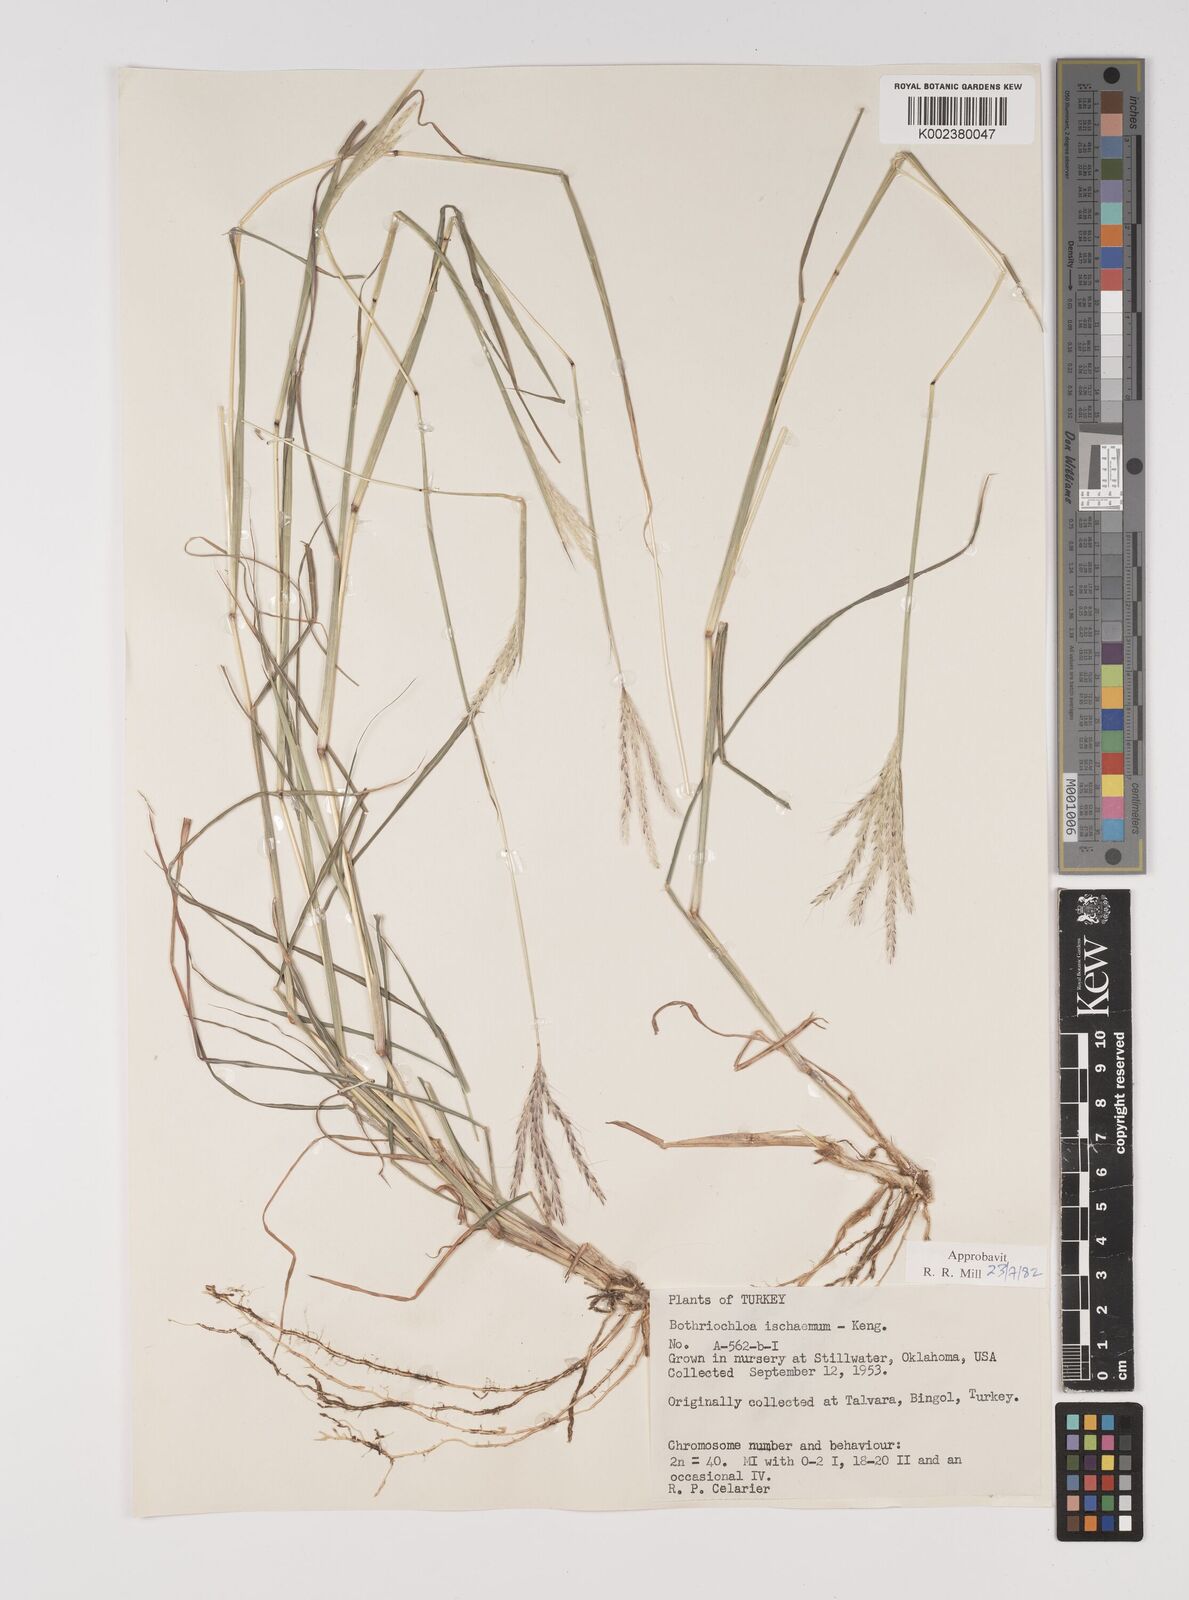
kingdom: Plantae
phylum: Tracheophyta
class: Liliopsida
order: Poales
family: Poaceae
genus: Bothriochloa
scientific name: Bothriochloa ischaemum
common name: Yellow bluestem
